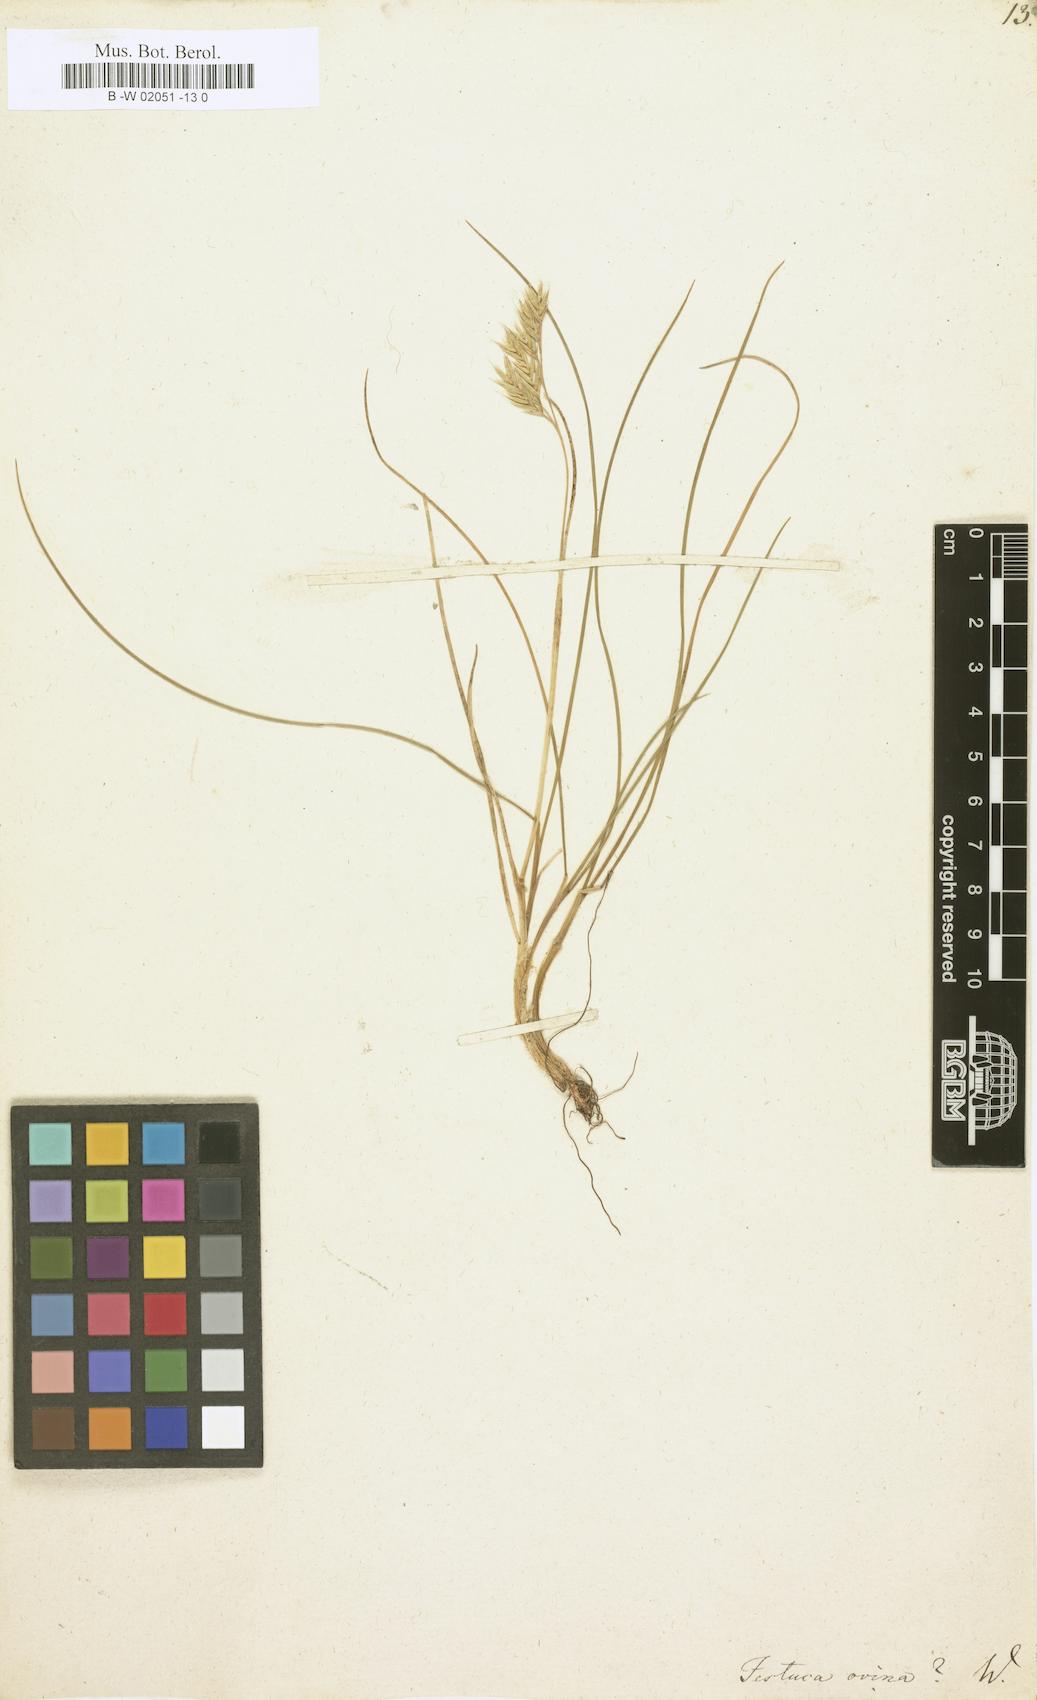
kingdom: Plantae
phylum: Tracheophyta
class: Liliopsida
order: Poales
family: Poaceae
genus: Festuca
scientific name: Festuca ovina
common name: Sheep fescue
